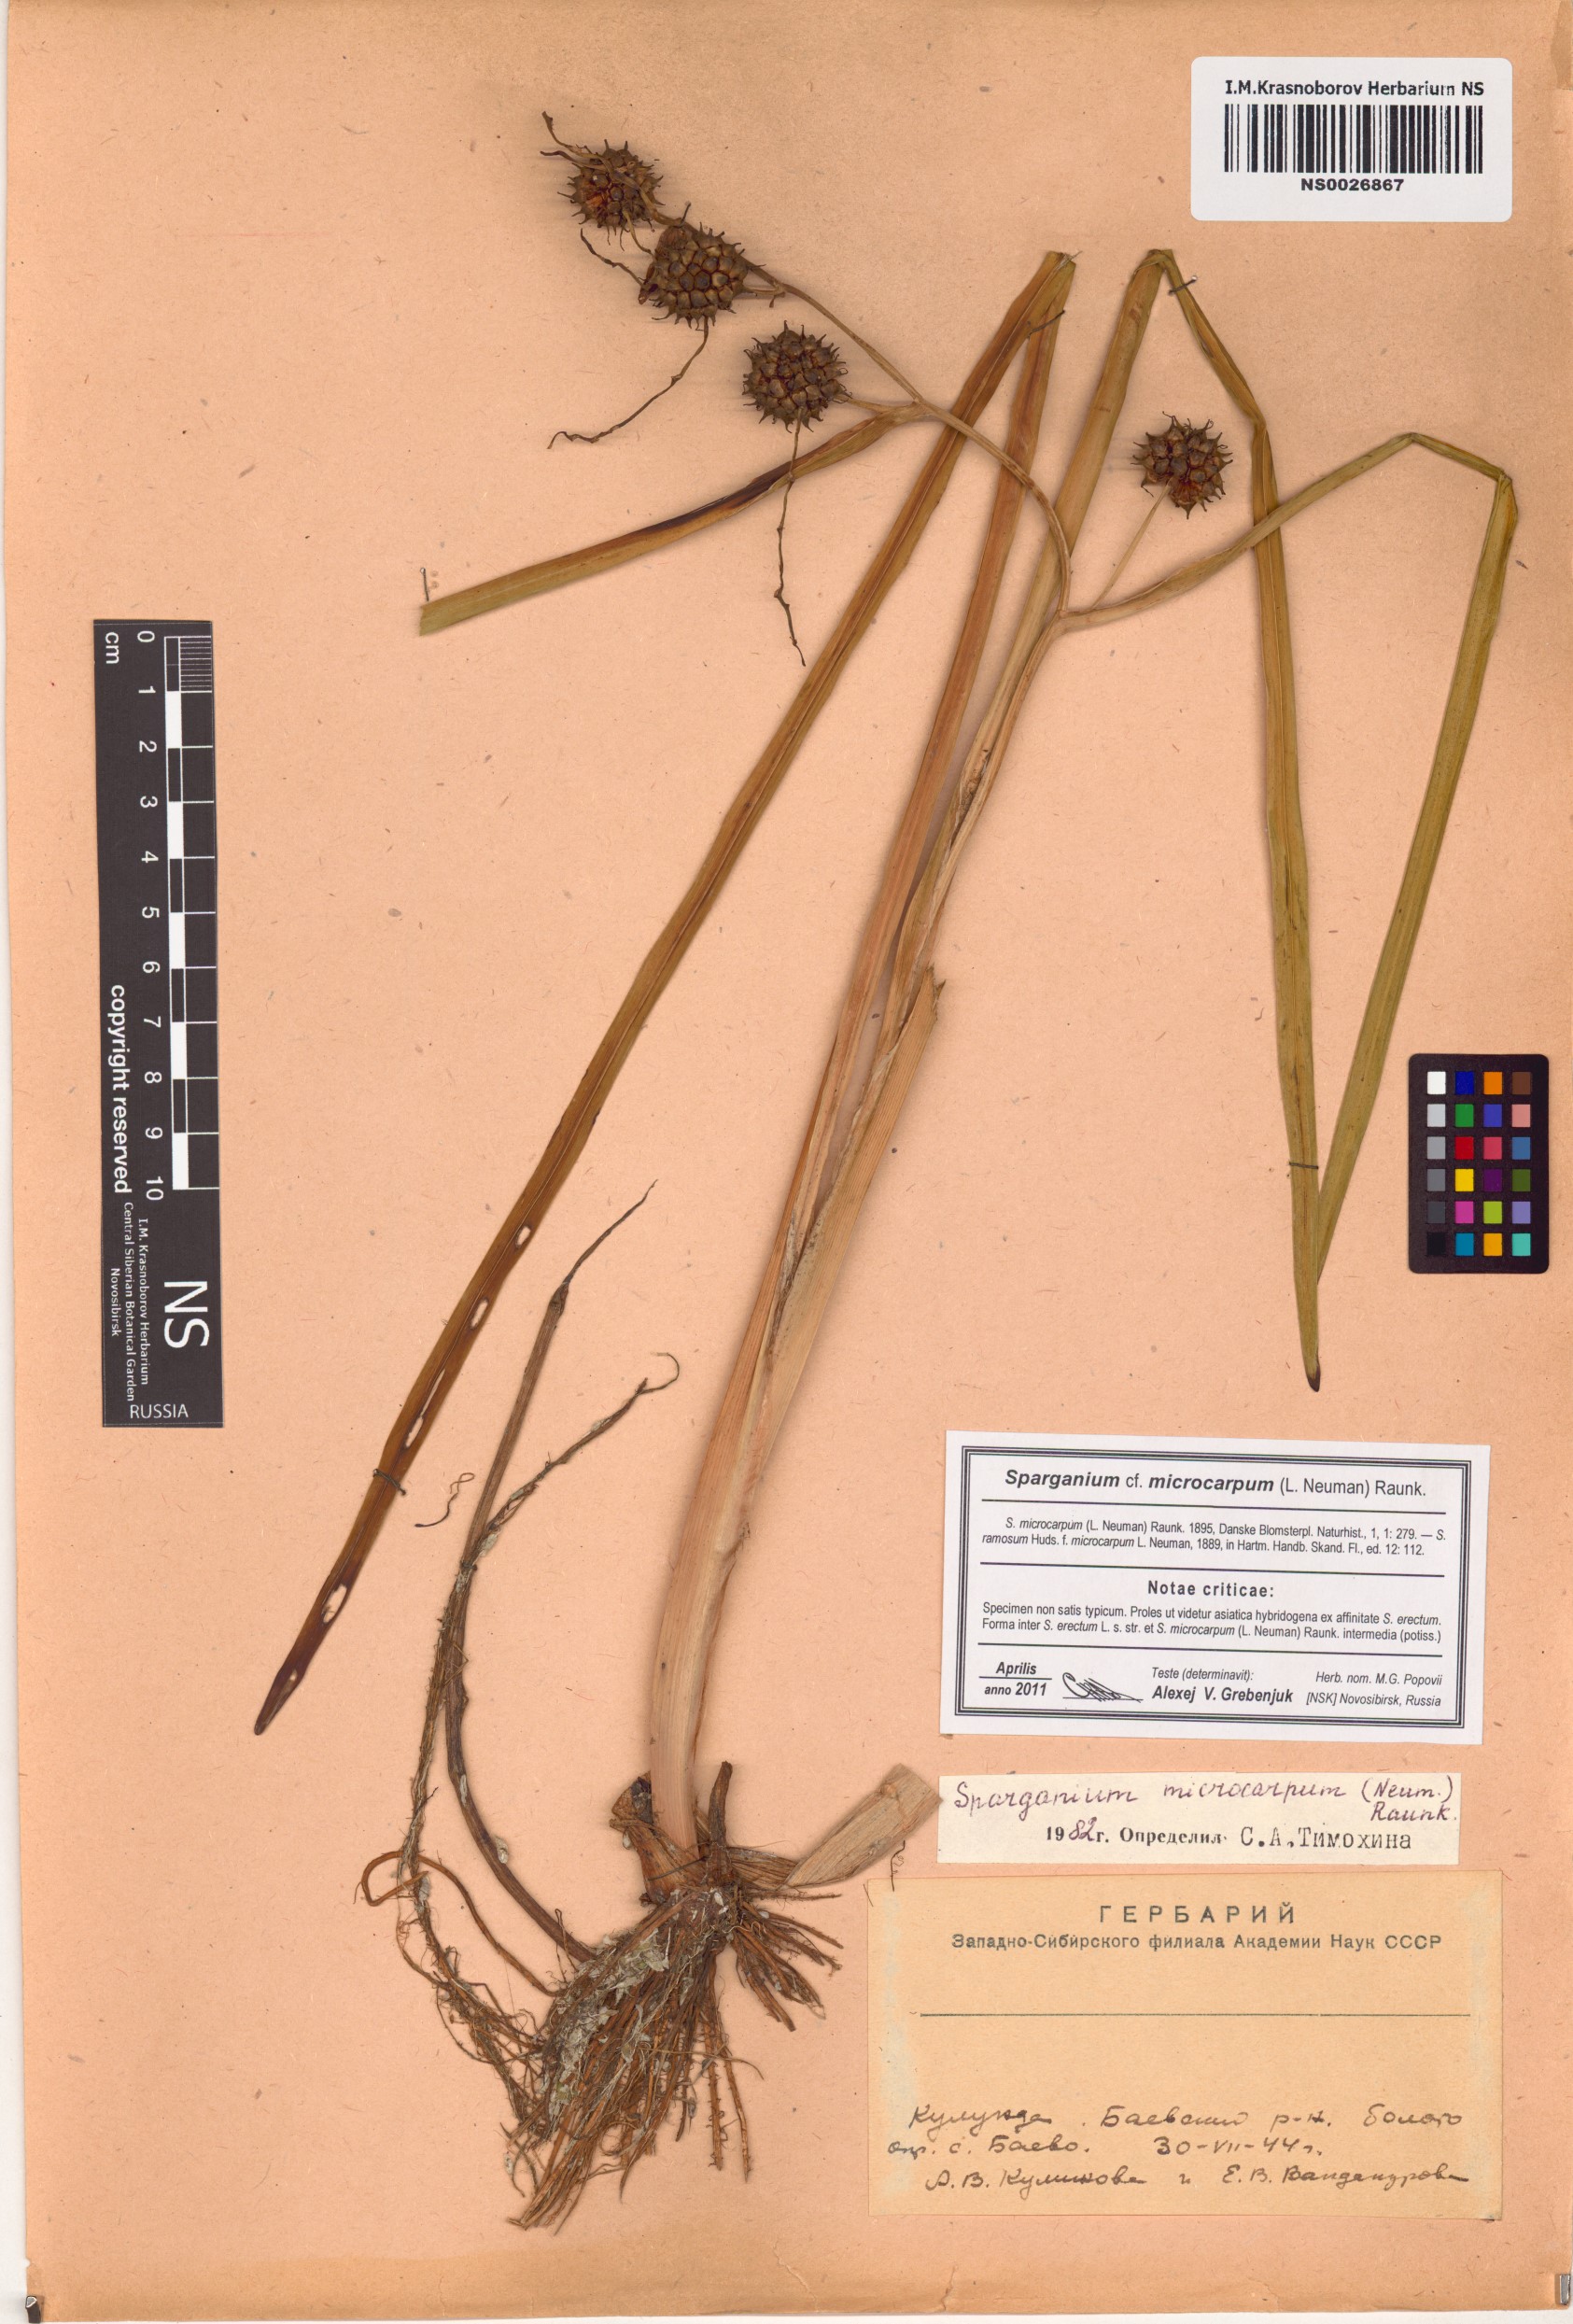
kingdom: Plantae
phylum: Tracheophyta
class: Liliopsida
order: Poales
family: Typhaceae
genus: Sparganium
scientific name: Sparganium erectum
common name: Branched bur-reed
